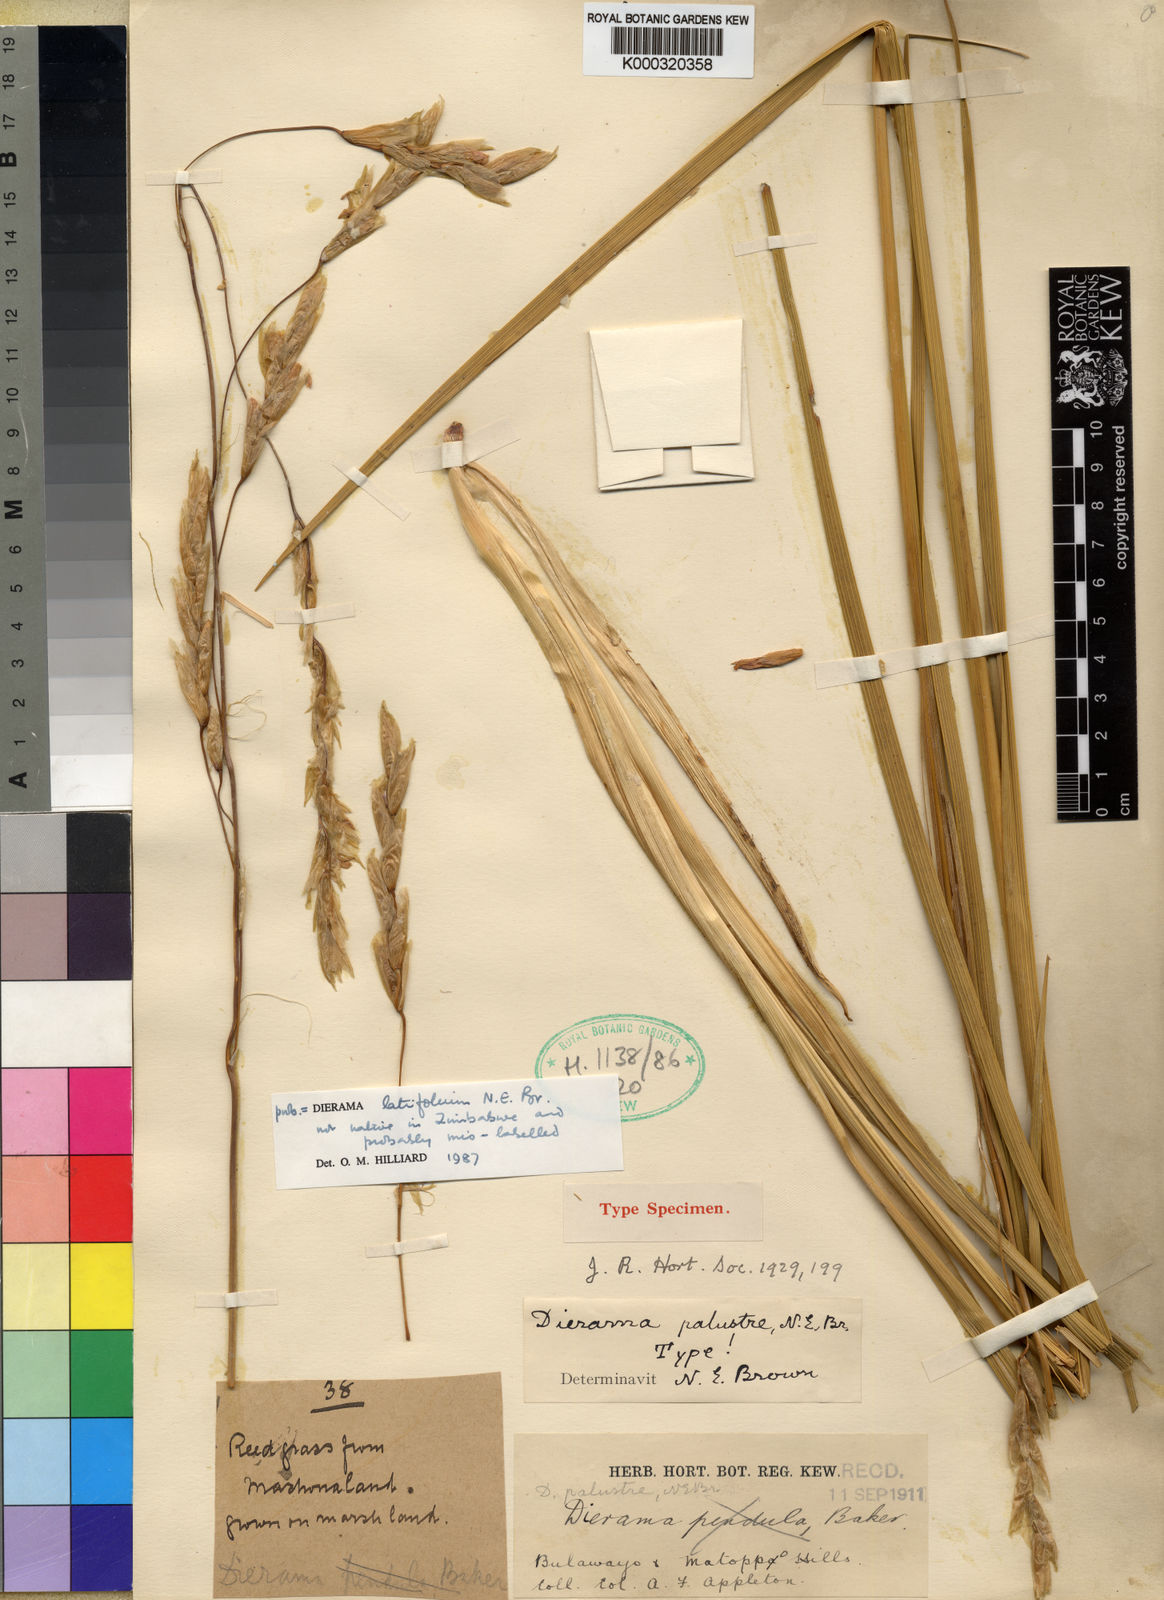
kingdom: Plantae
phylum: Tracheophyta
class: Liliopsida
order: Asparagales
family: Iridaceae
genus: Dierama
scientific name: Dierama latifolium
